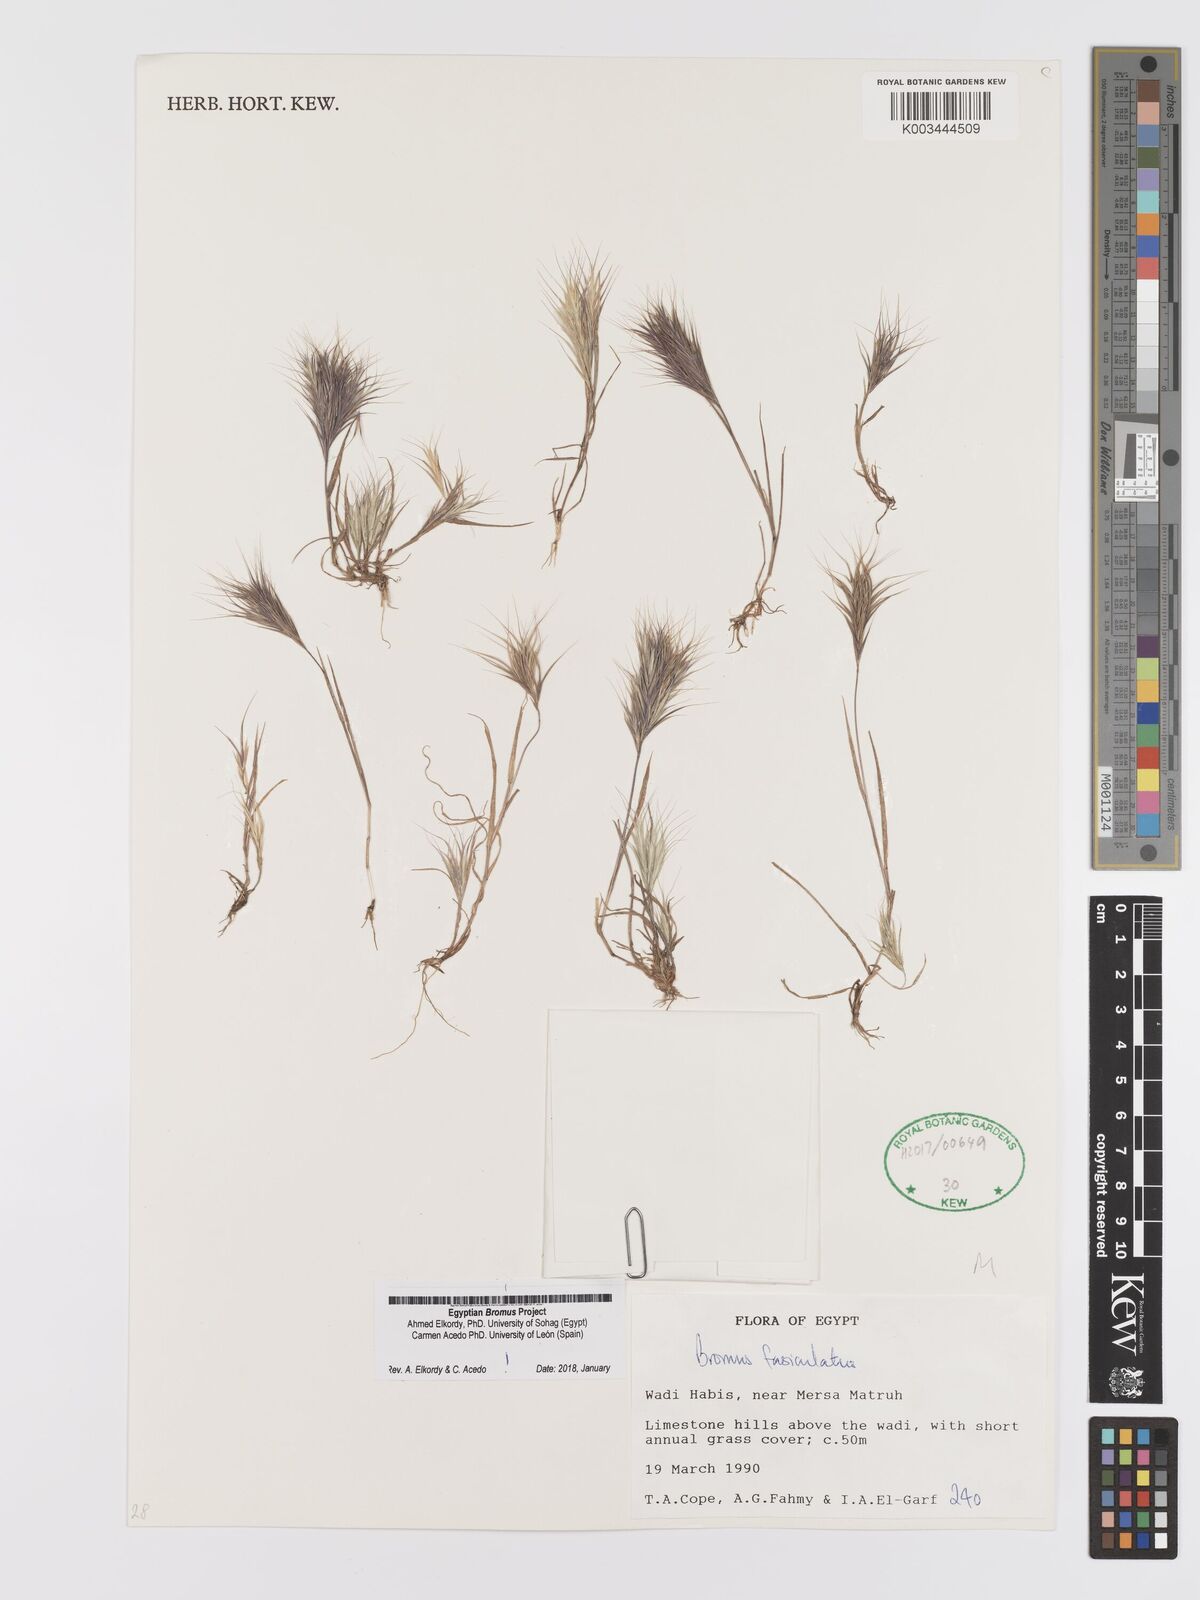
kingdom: Plantae
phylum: Tracheophyta
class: Liliopsida
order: Poales
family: Poaceae
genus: Bromus
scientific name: Bromus fasciculatus
